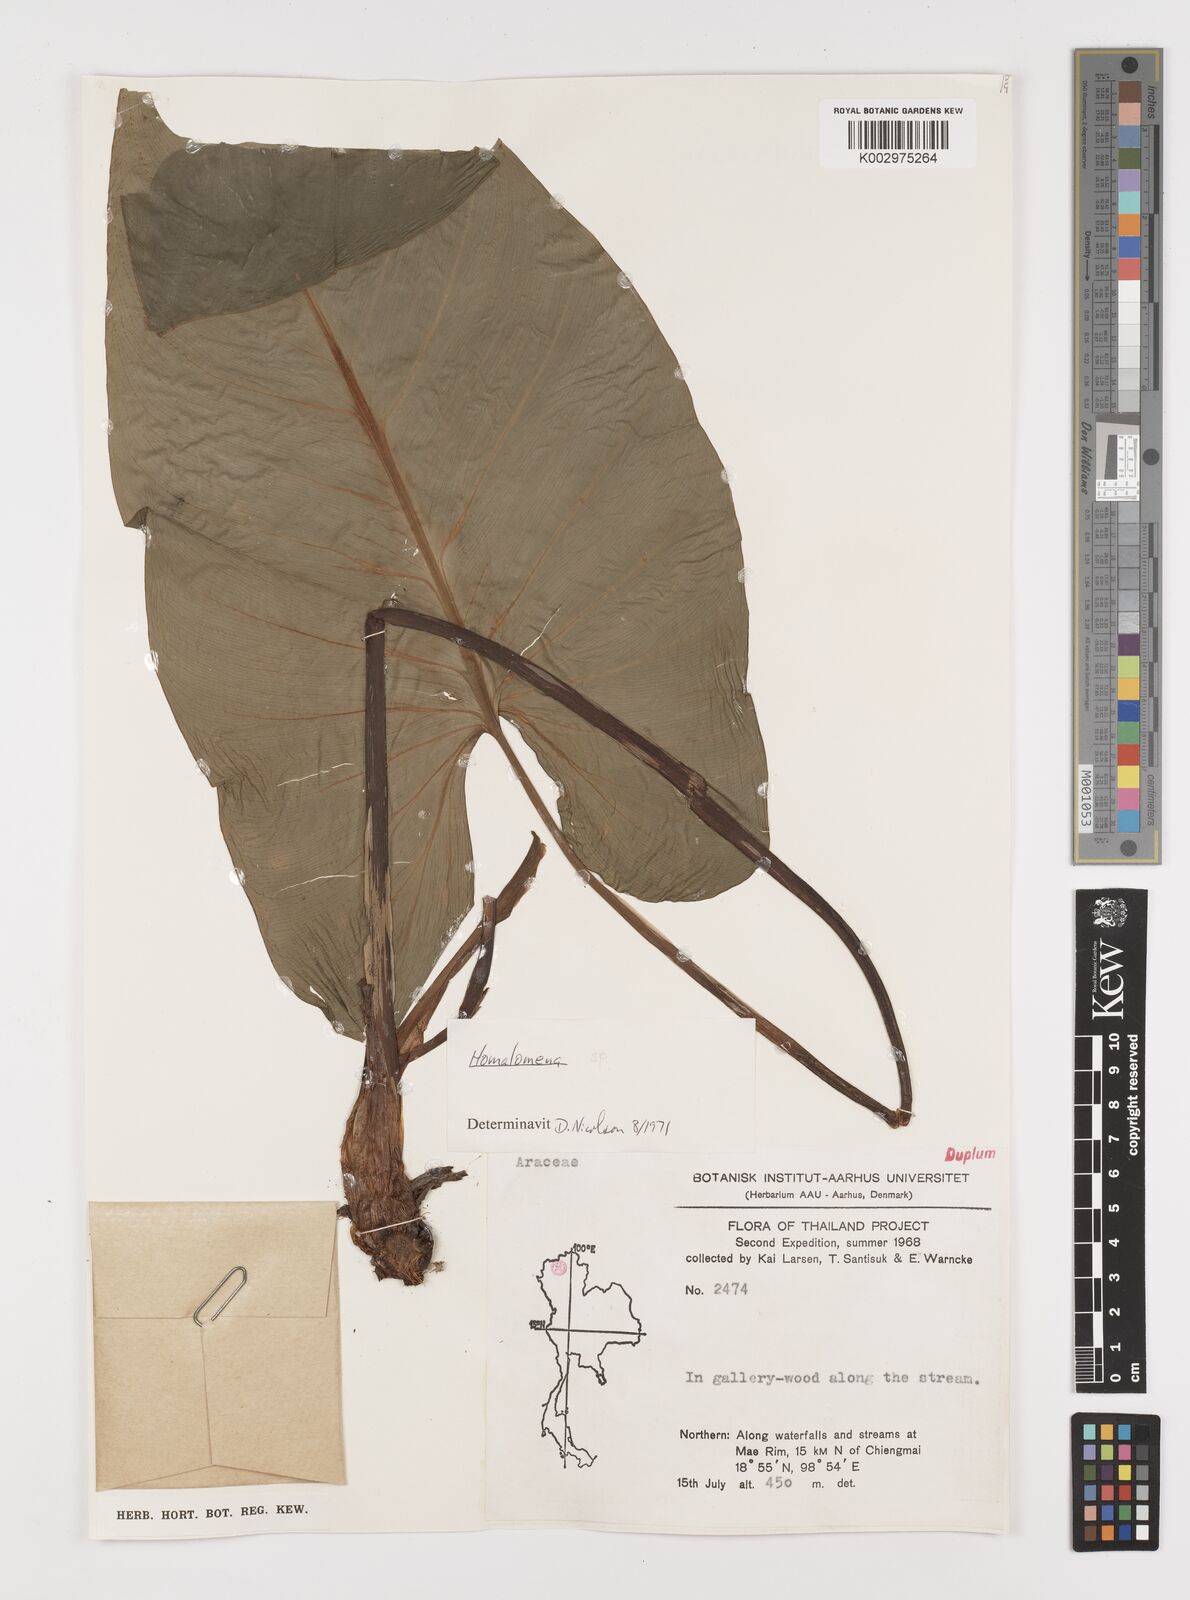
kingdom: Plantae
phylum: Tracheophyta
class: Liliopsida
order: Alismatales
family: Araceae
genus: Homalomena
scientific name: Homalomena
